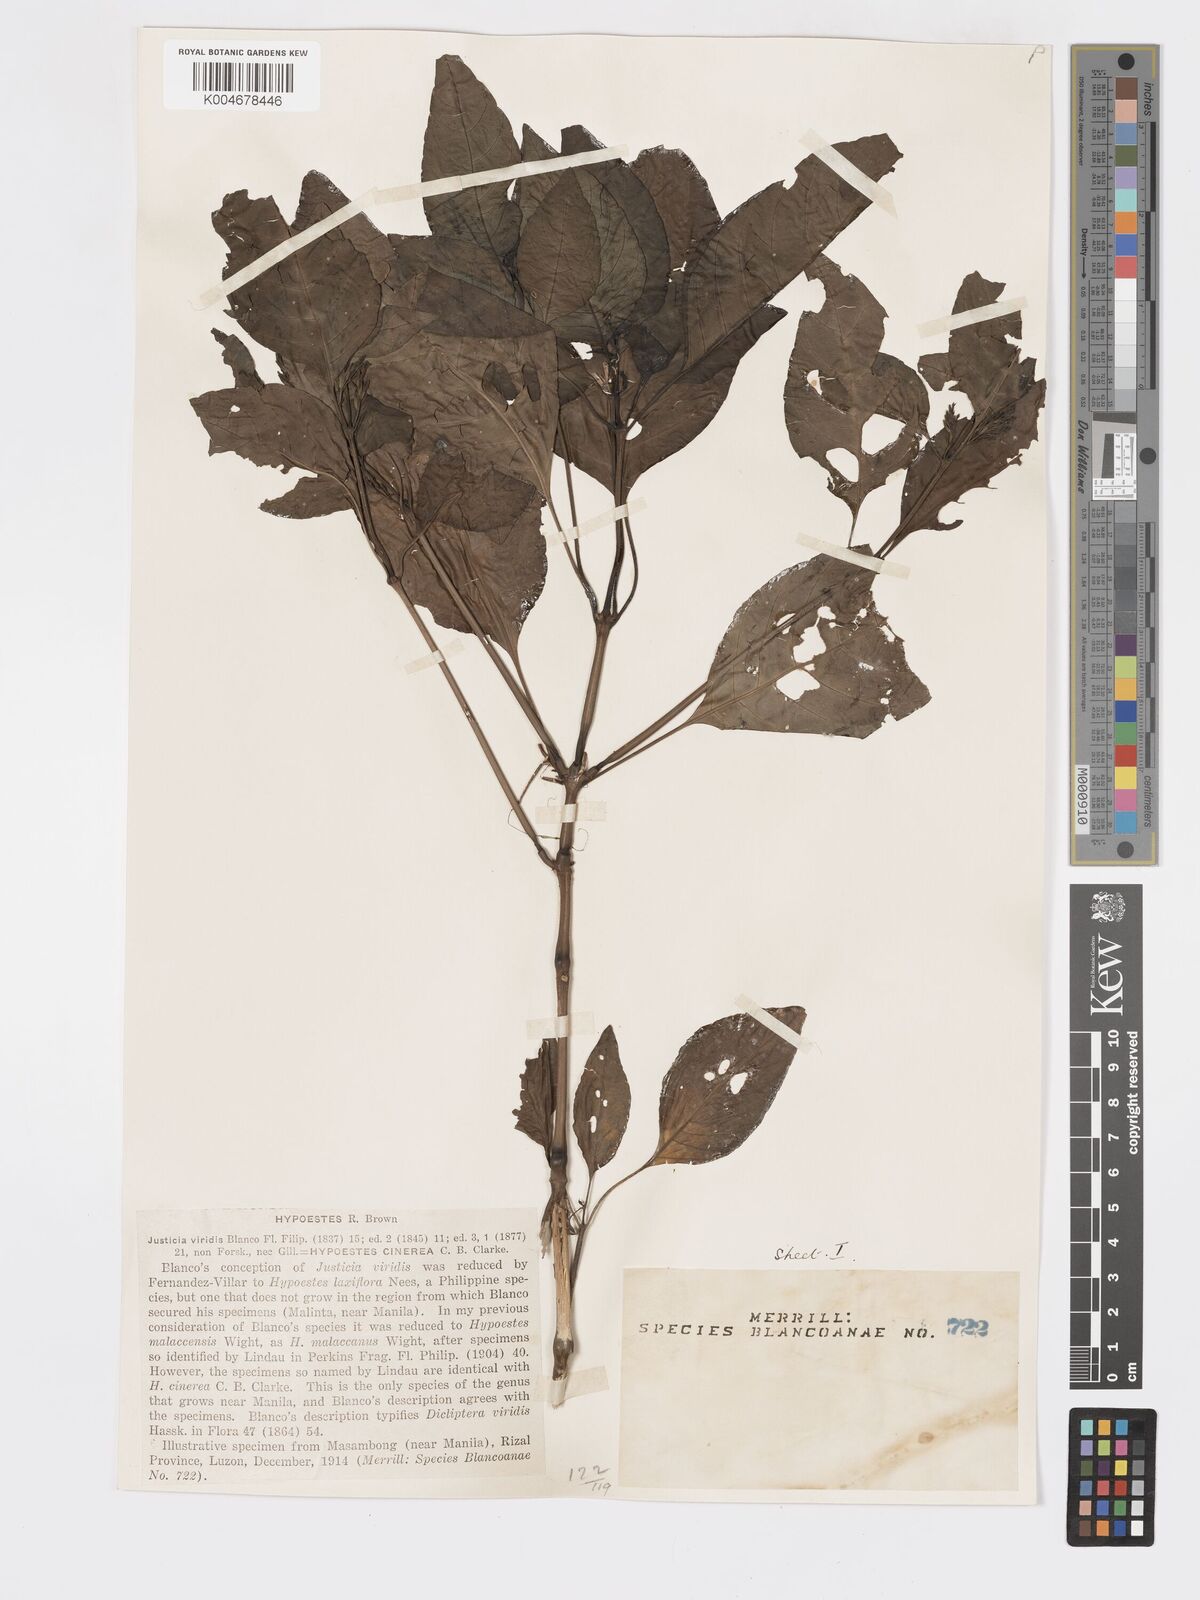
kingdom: Plantae
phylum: Tracheophyta
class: Magnoliopsida
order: Lamiales
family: Acanthaceae
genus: Hypoestes
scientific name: Hypoestes
